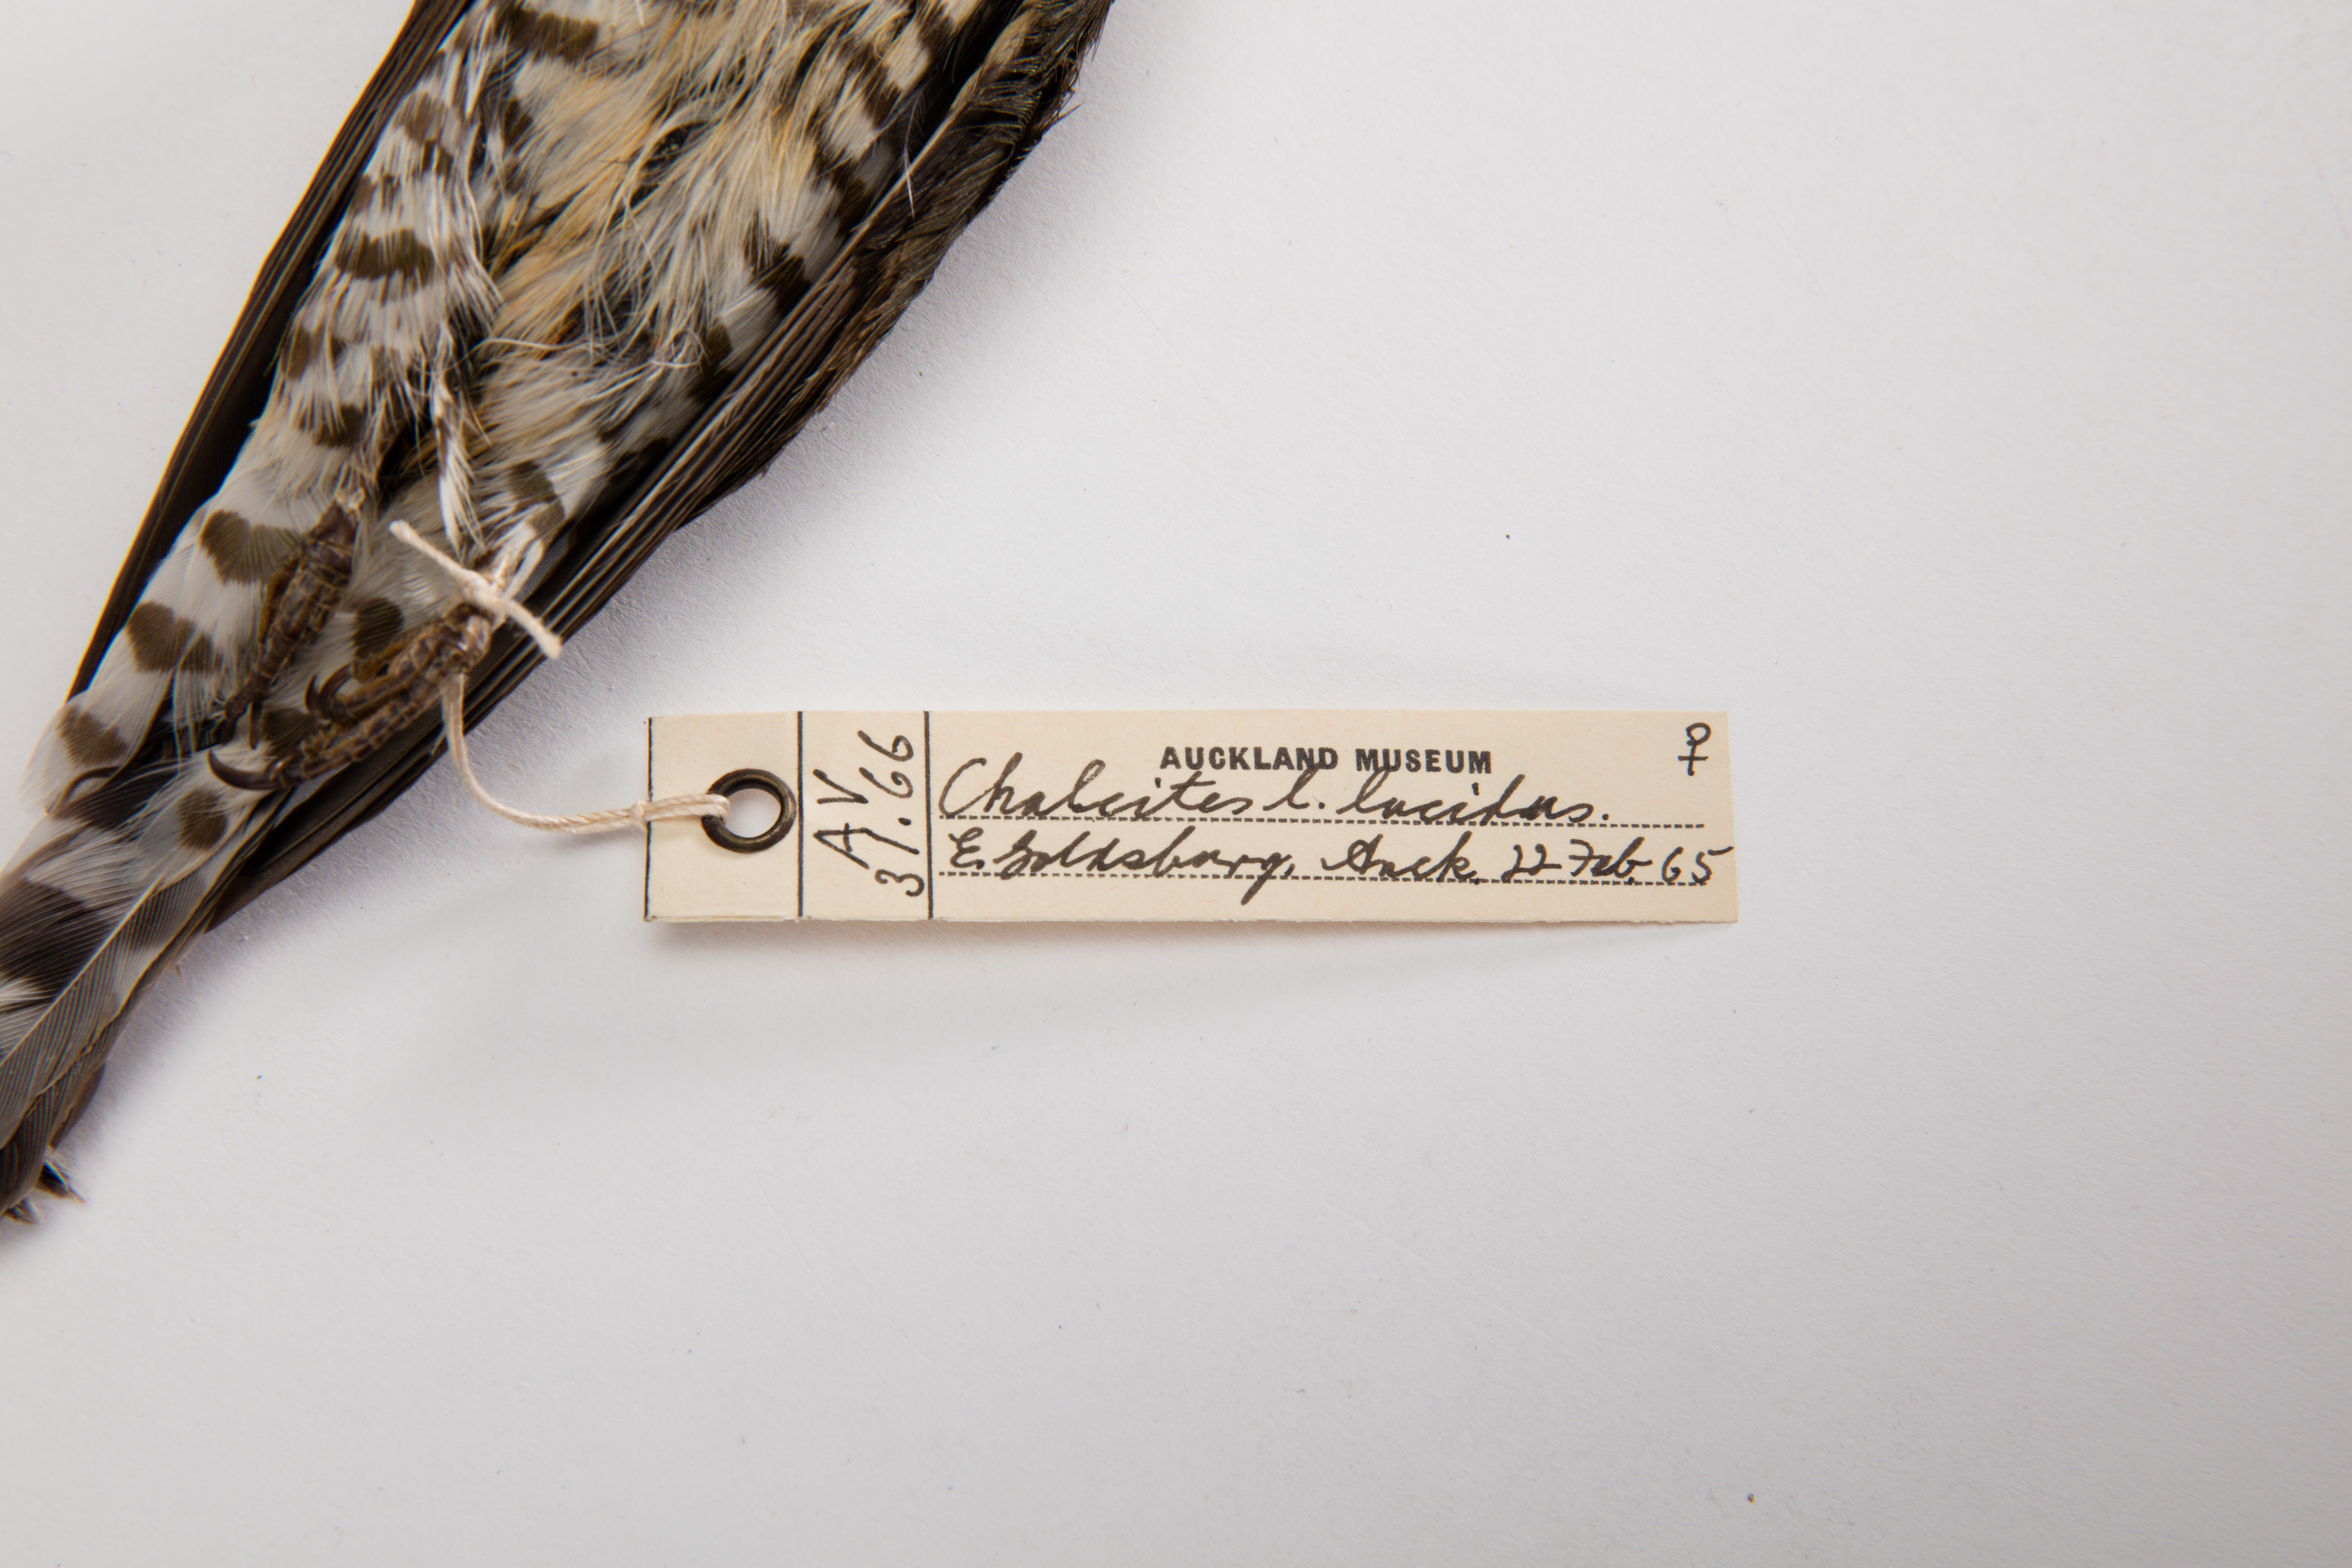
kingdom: Animalia
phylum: Chordata
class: Aves
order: Cuculiformes
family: Cuculidae
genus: Chrysococcyx
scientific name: Chrysococcyx lucidus
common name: Shining bronze cuckoo
